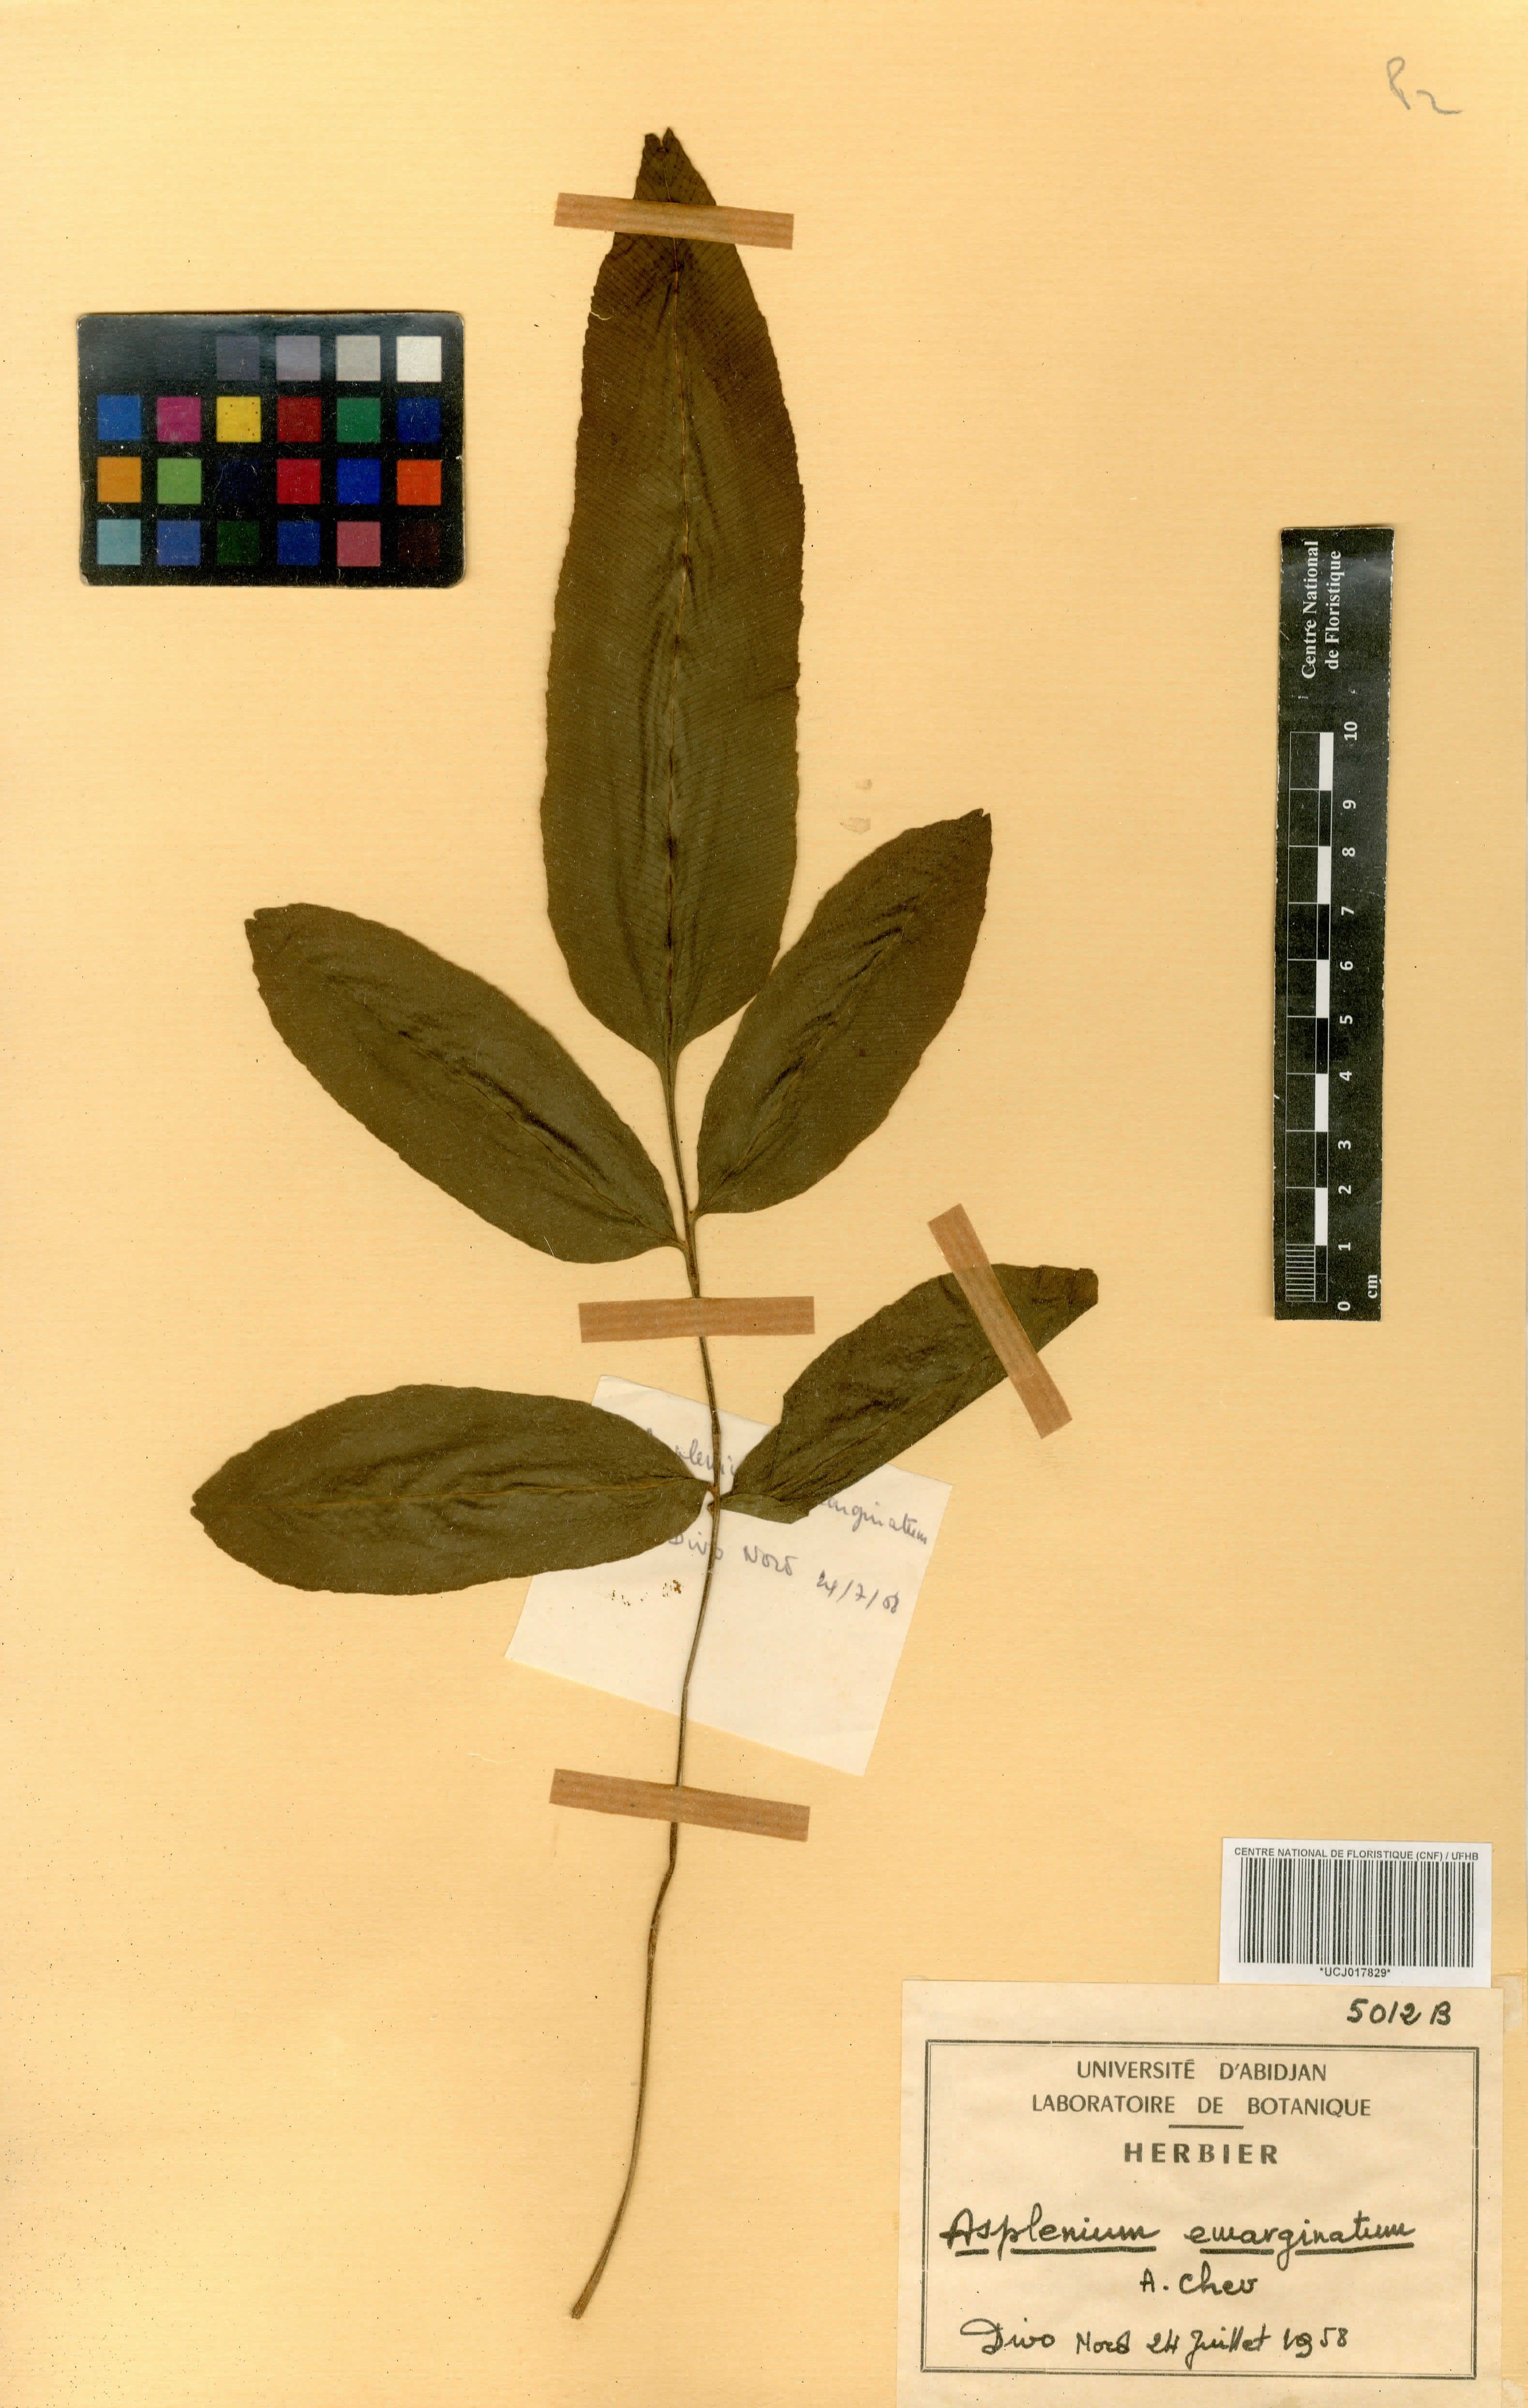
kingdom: Plantae
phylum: Tracheophyta
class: Polypodiopsida
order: Polypodiales
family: Aspleniaceae
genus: Asplenium
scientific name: Asplenium emarginatum
